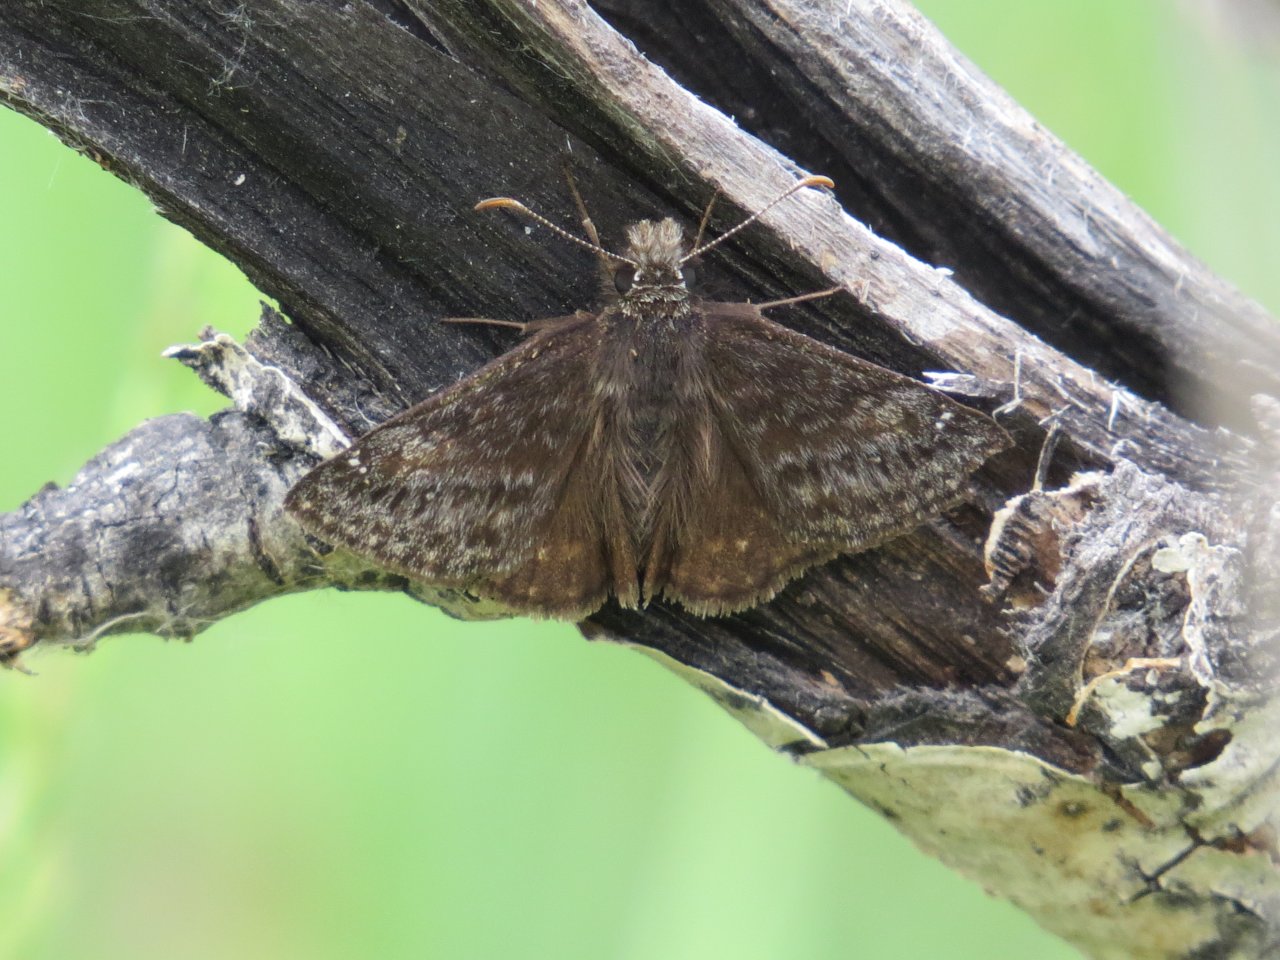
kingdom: Animalia
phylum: Arthropoda
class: Insecta
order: Lepidoptera
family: Hesperiidae
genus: Gesta
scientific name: Gesta
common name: Persius Duskywing
